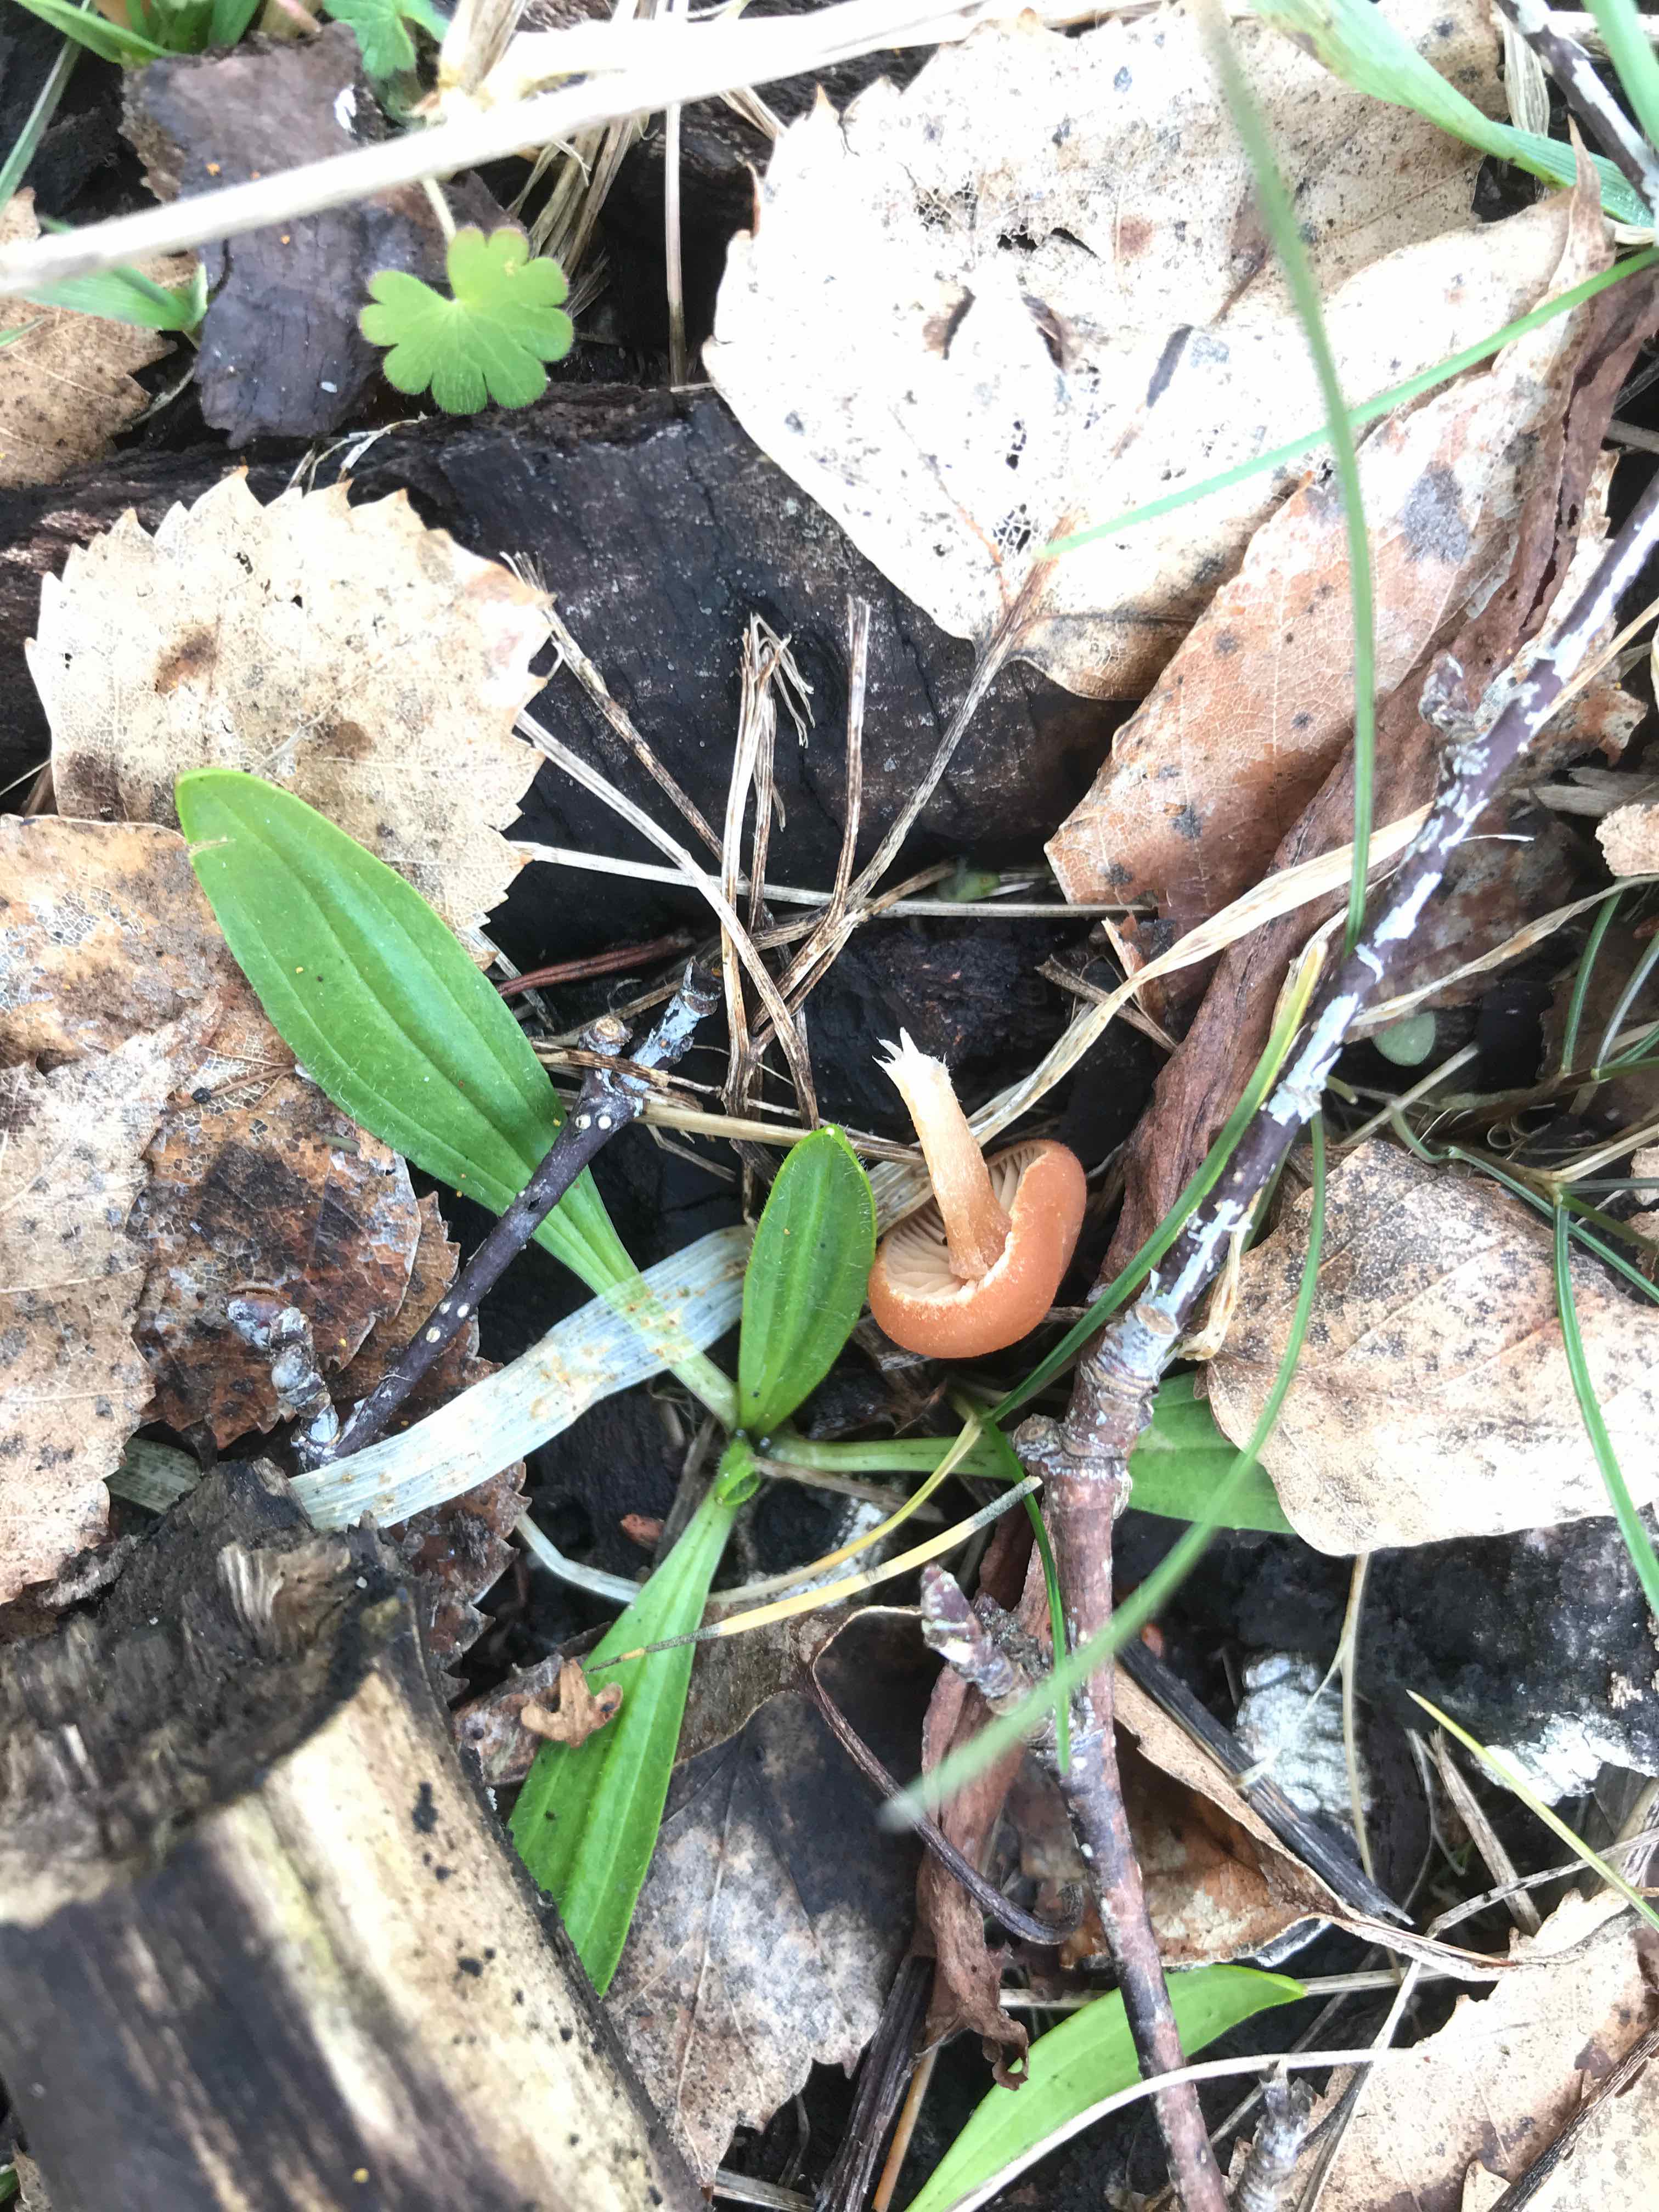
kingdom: Fungi
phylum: Basidiomycota
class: Agaricomycetes
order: Agaricales
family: Tubariaceae
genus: Tubaria
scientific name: Tubaria furfuracea
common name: kliddet fnughat
